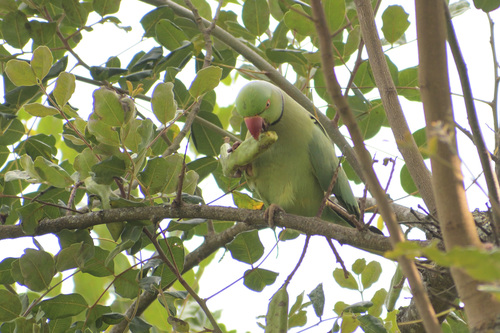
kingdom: Animalia
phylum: Chordata
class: Aves
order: Psittaciformes
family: Psittacidae
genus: Psittacula
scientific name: Psittacula krameri
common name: Rose-ringed parakeet
